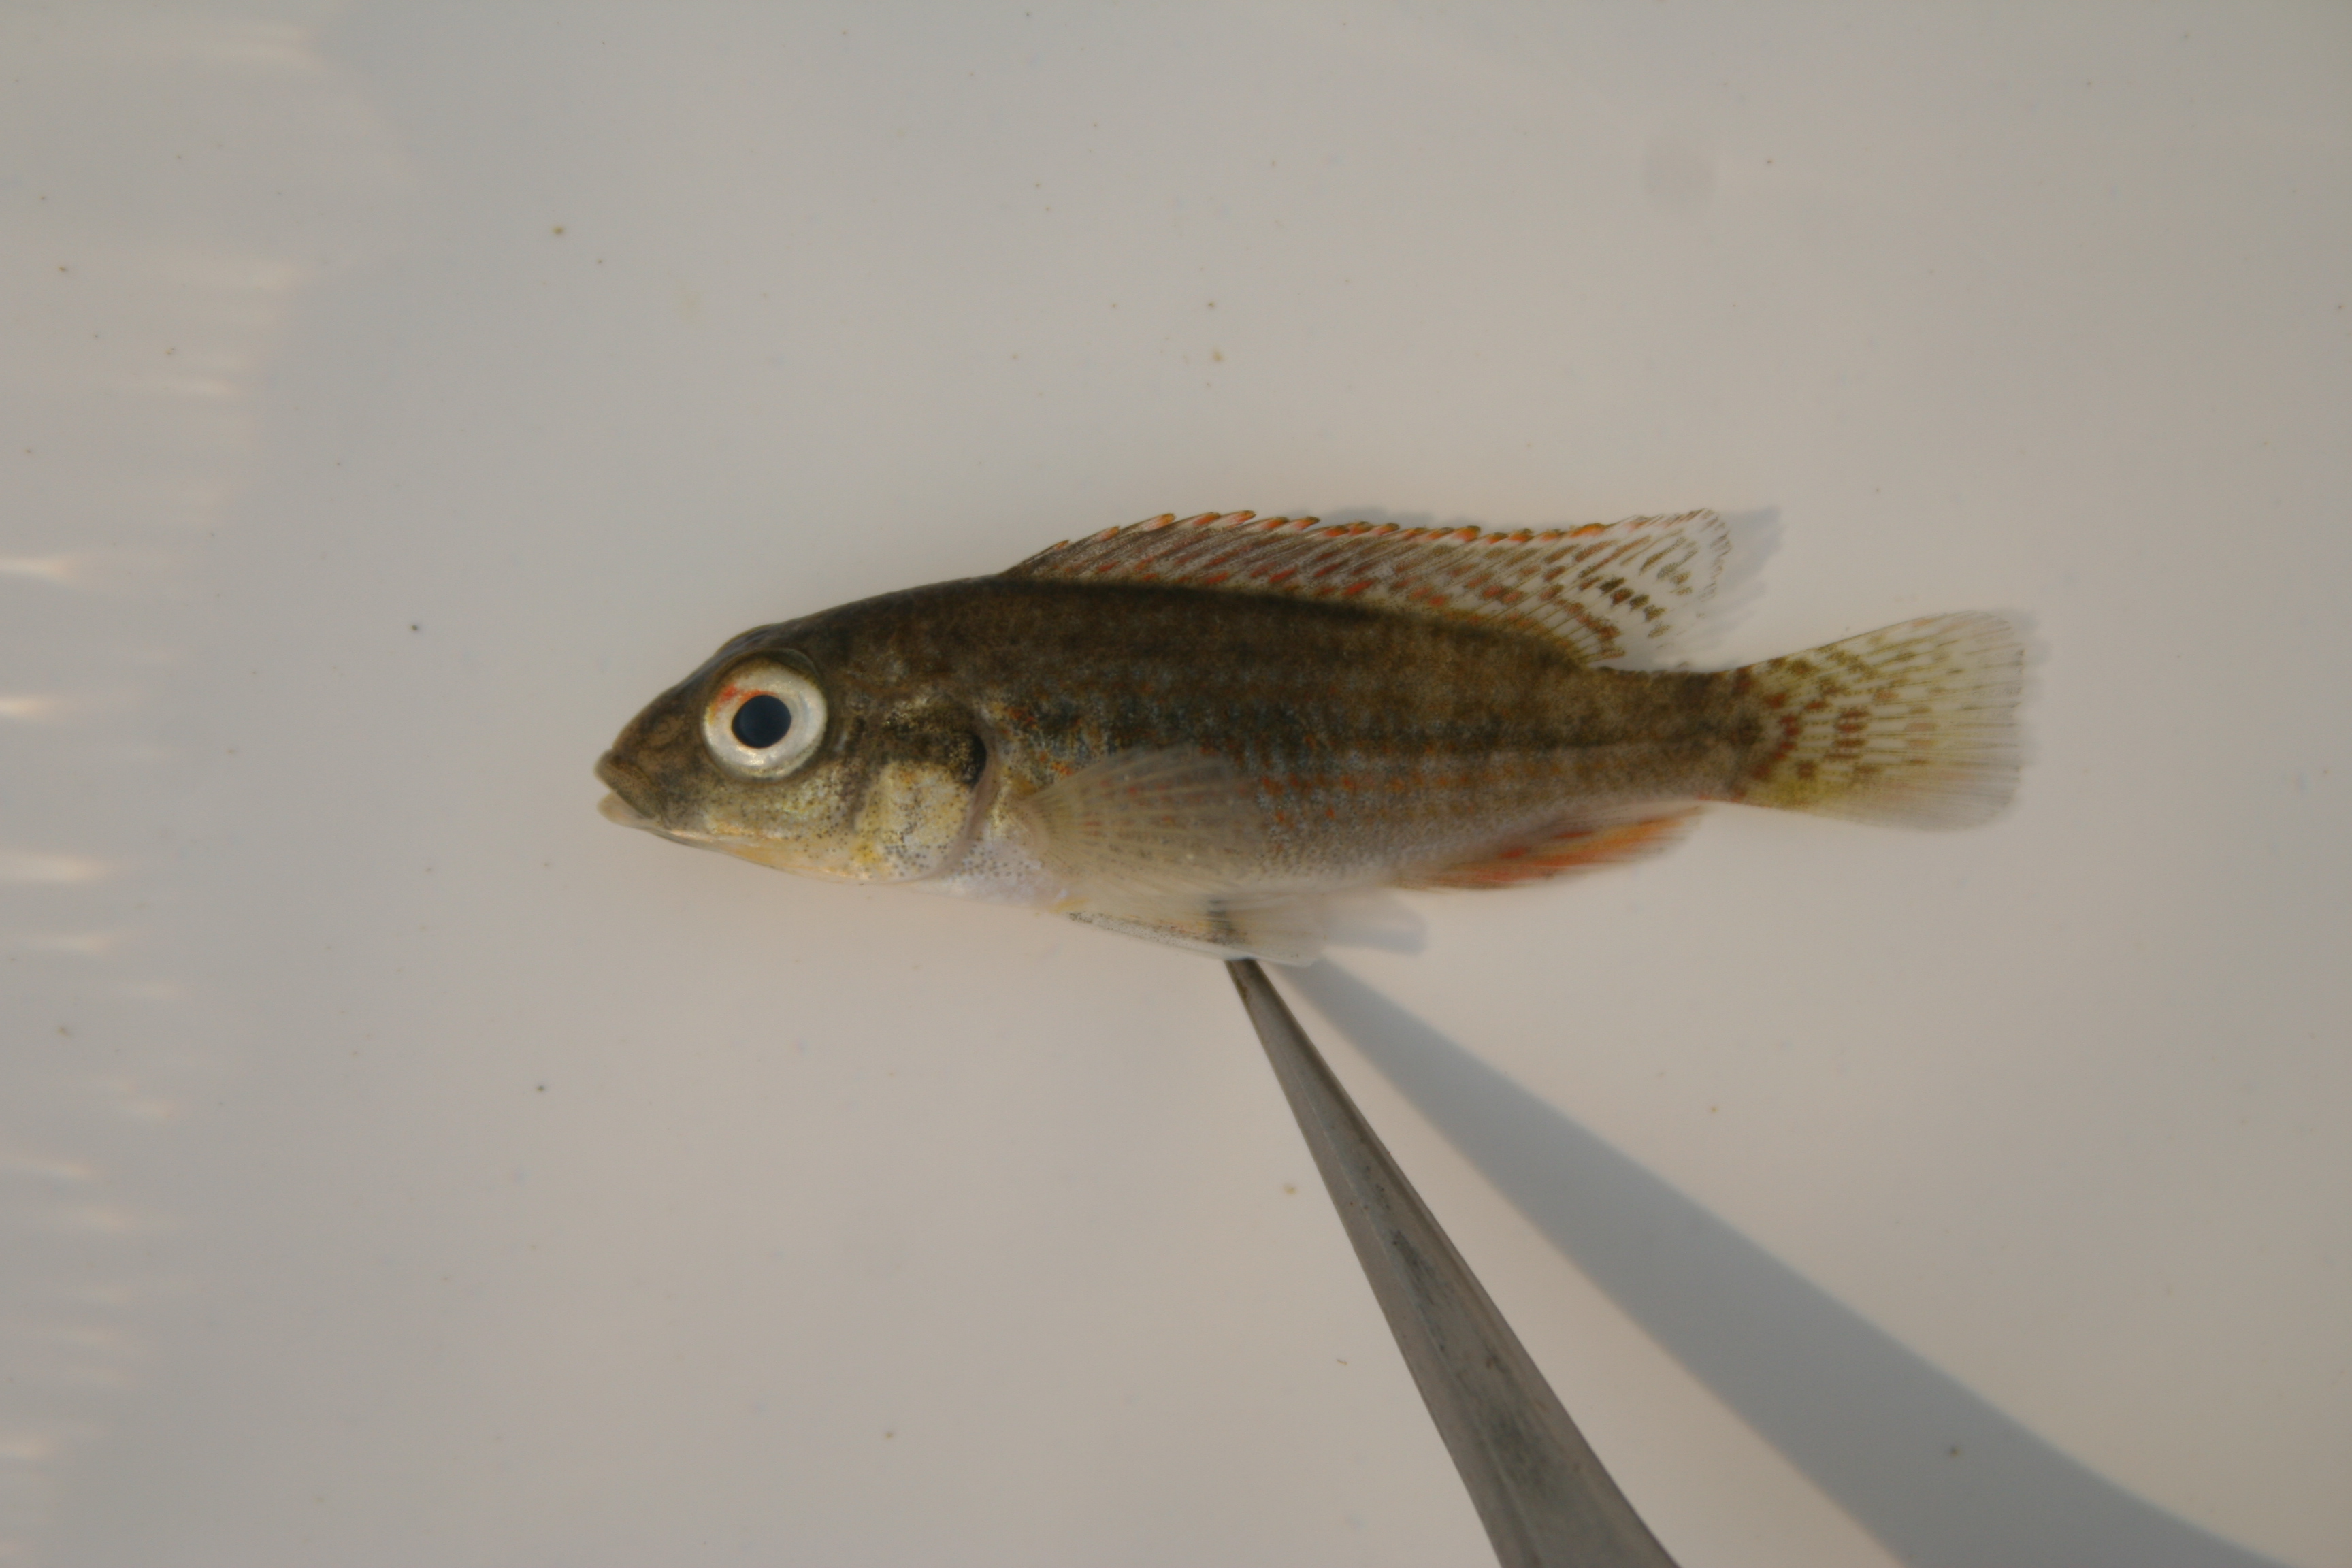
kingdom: Animalia
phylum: Chordata
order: Perciformes
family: Cichlidae
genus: Pharyngochromis
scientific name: Pharyngochromis
